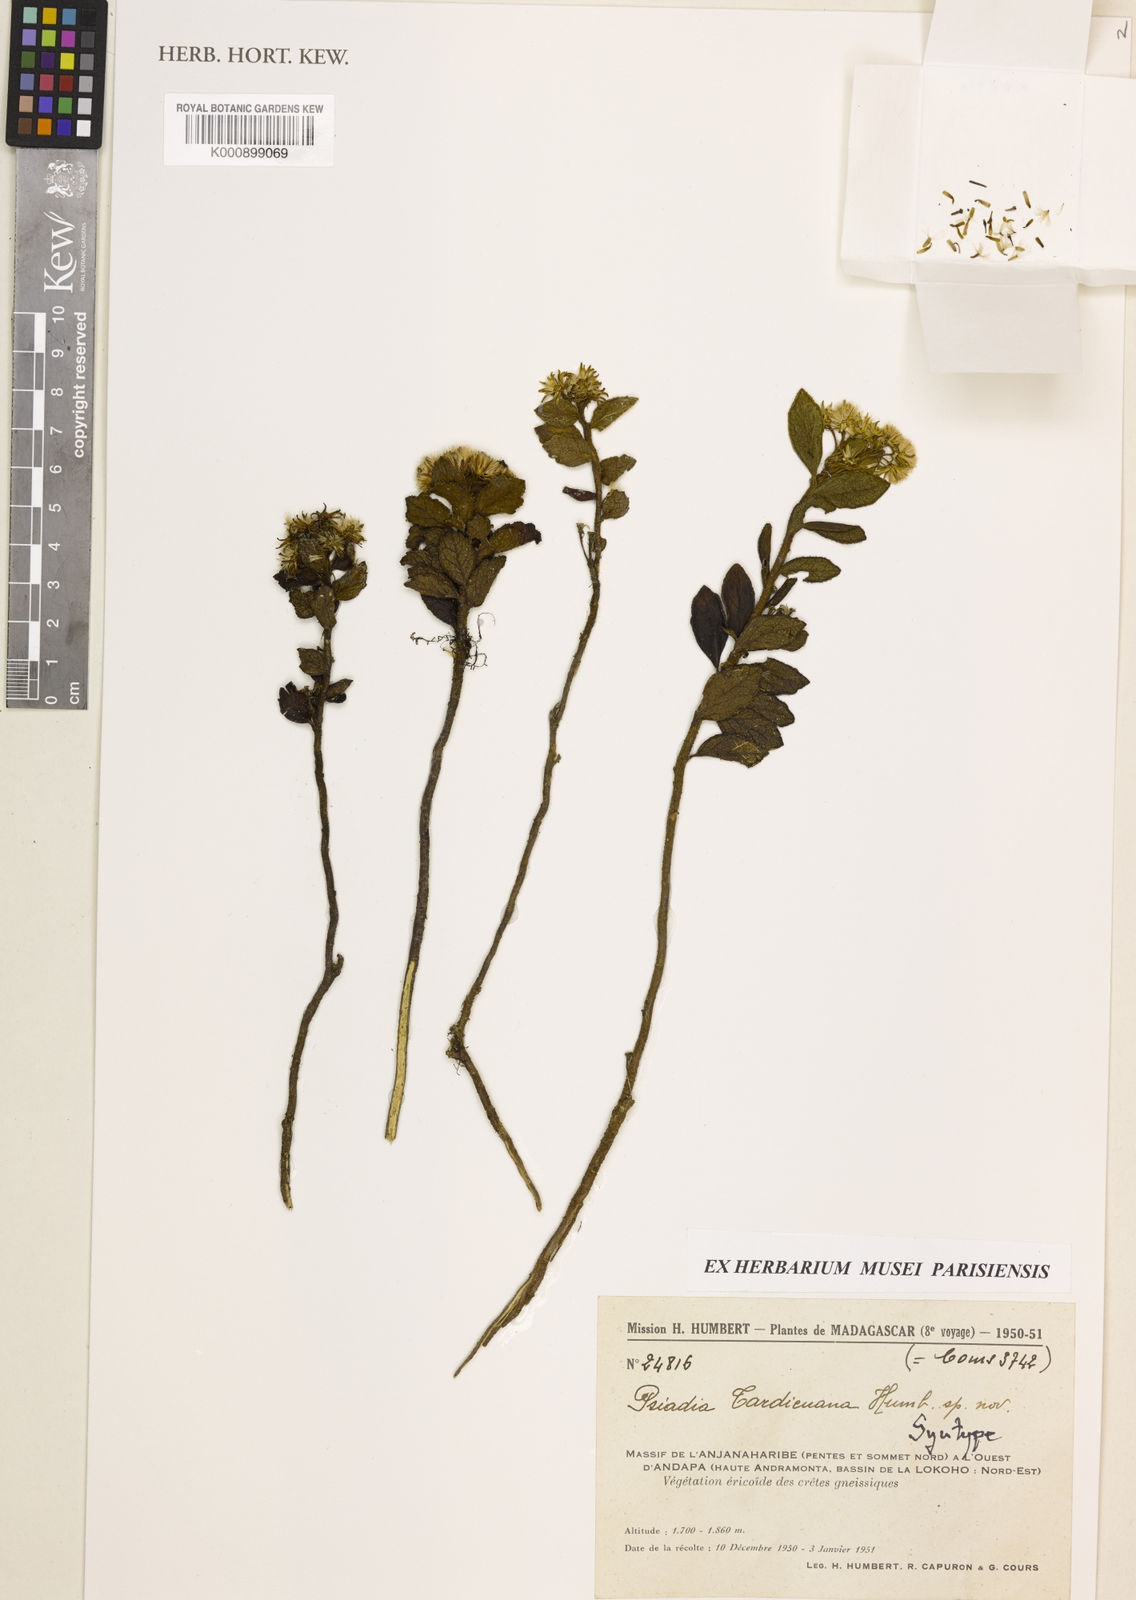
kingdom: Plantae
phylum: Tracheophyta
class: Magnoliopsida
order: Asterales
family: Asteraceae
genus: Psiadia
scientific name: Psiadia tardieuana
